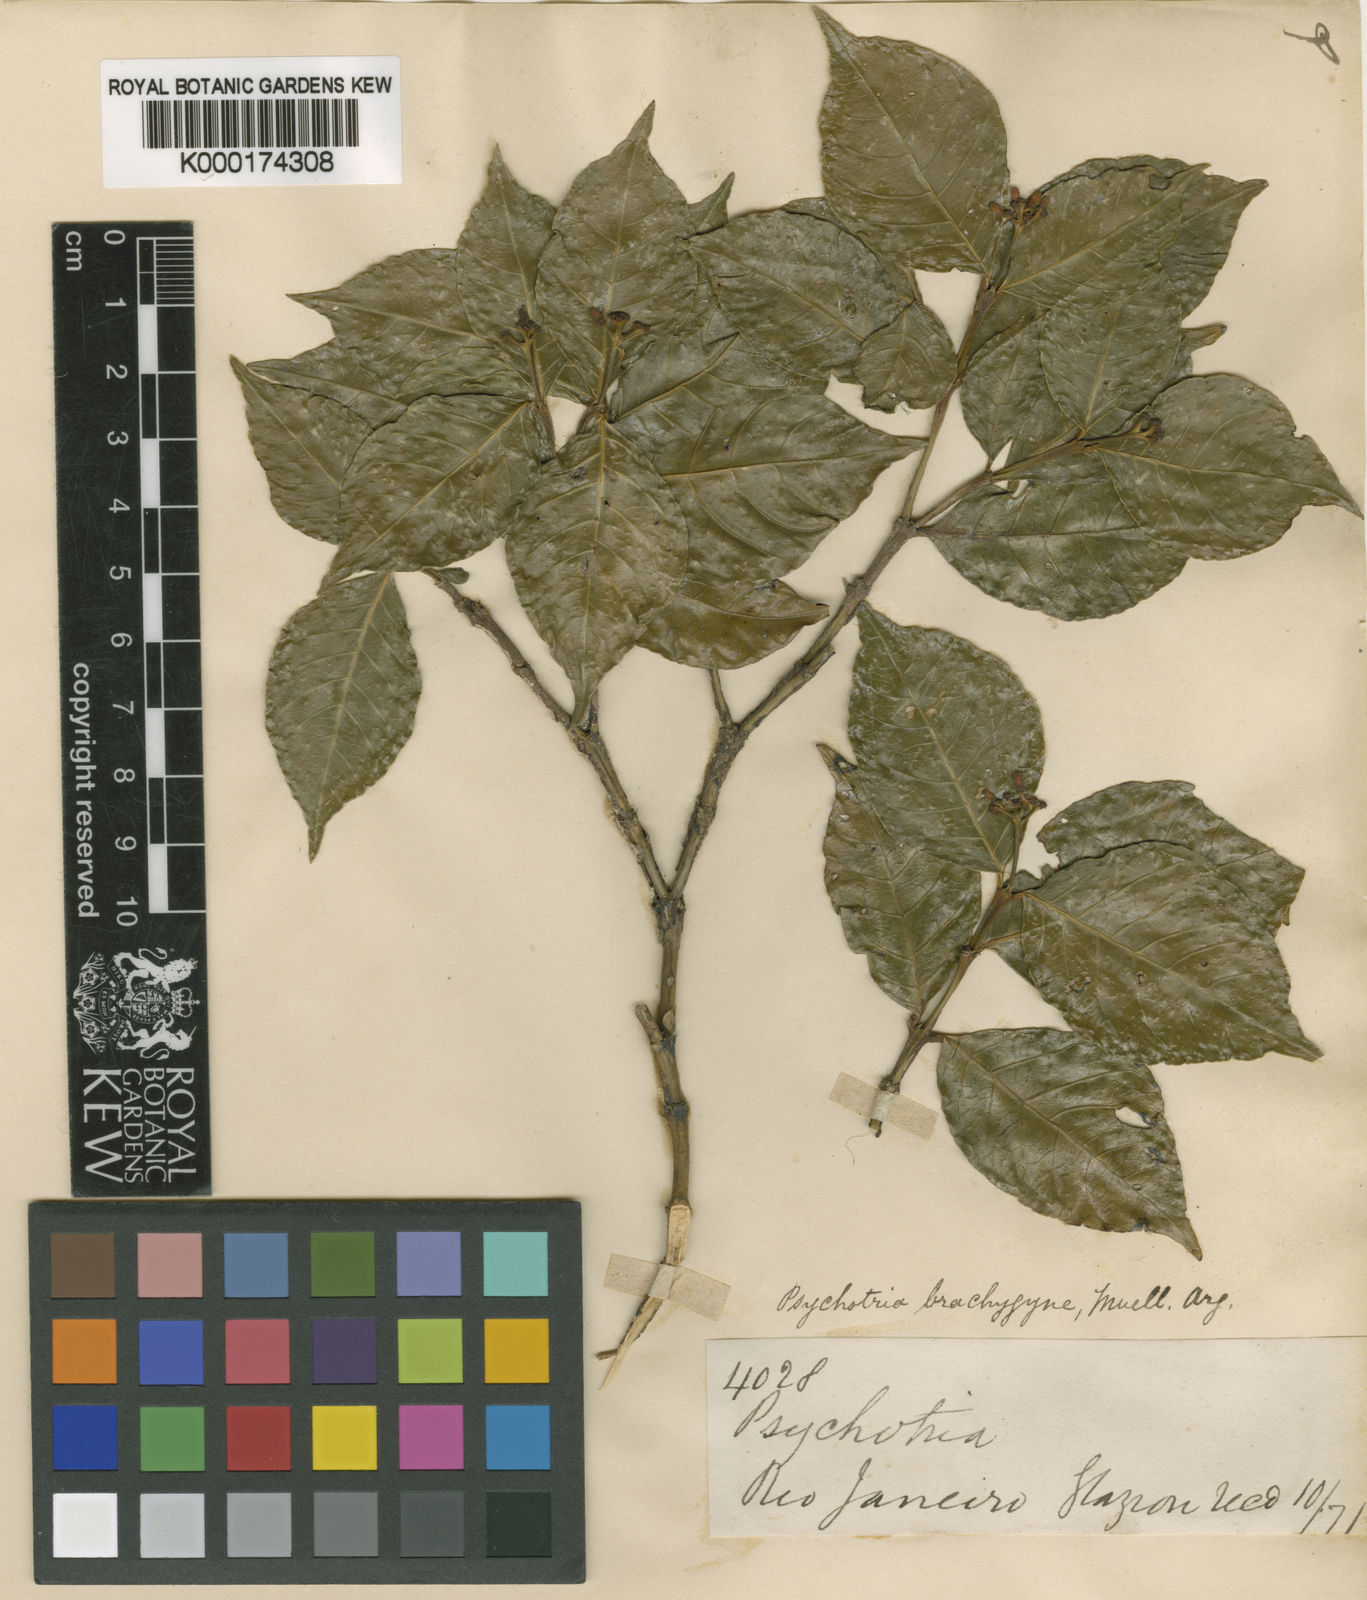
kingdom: Plantae
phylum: Tracheophyta
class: Magnoliopsida
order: Gentianales
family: Rubiaceae
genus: Psychotria
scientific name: Psychotria
